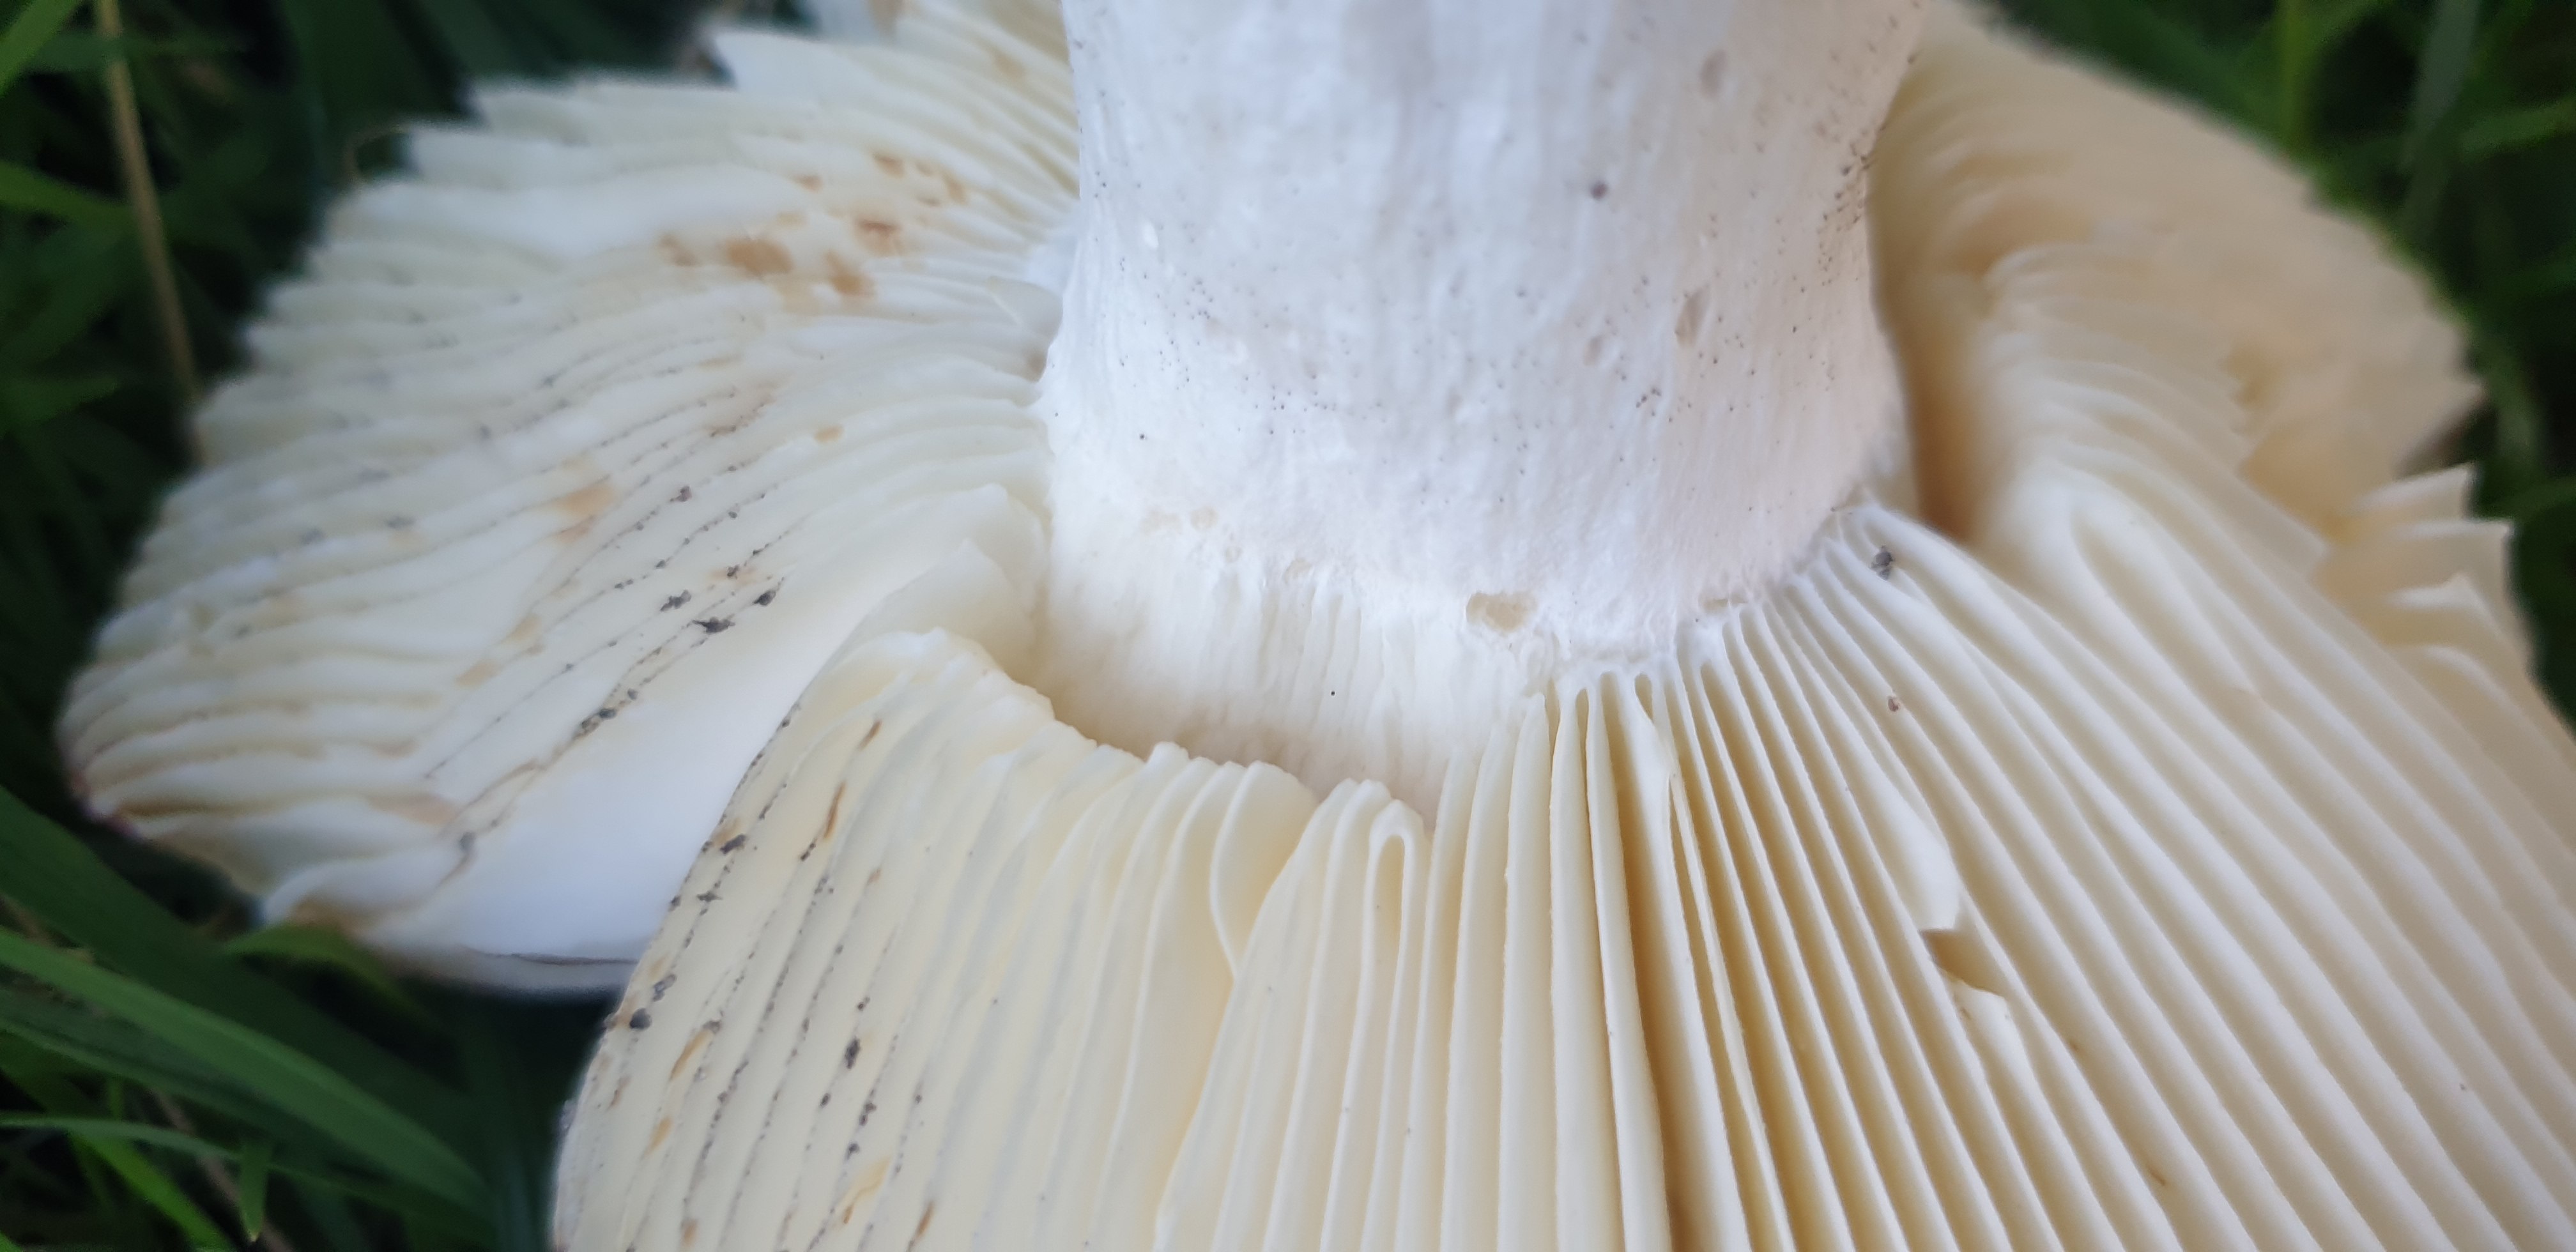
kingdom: Fungi
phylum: Basidiomycota
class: Agaricomycetes
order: Russulales
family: Russulaceae
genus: Russula
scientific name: Russula graveolens
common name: bugtet skørhat
